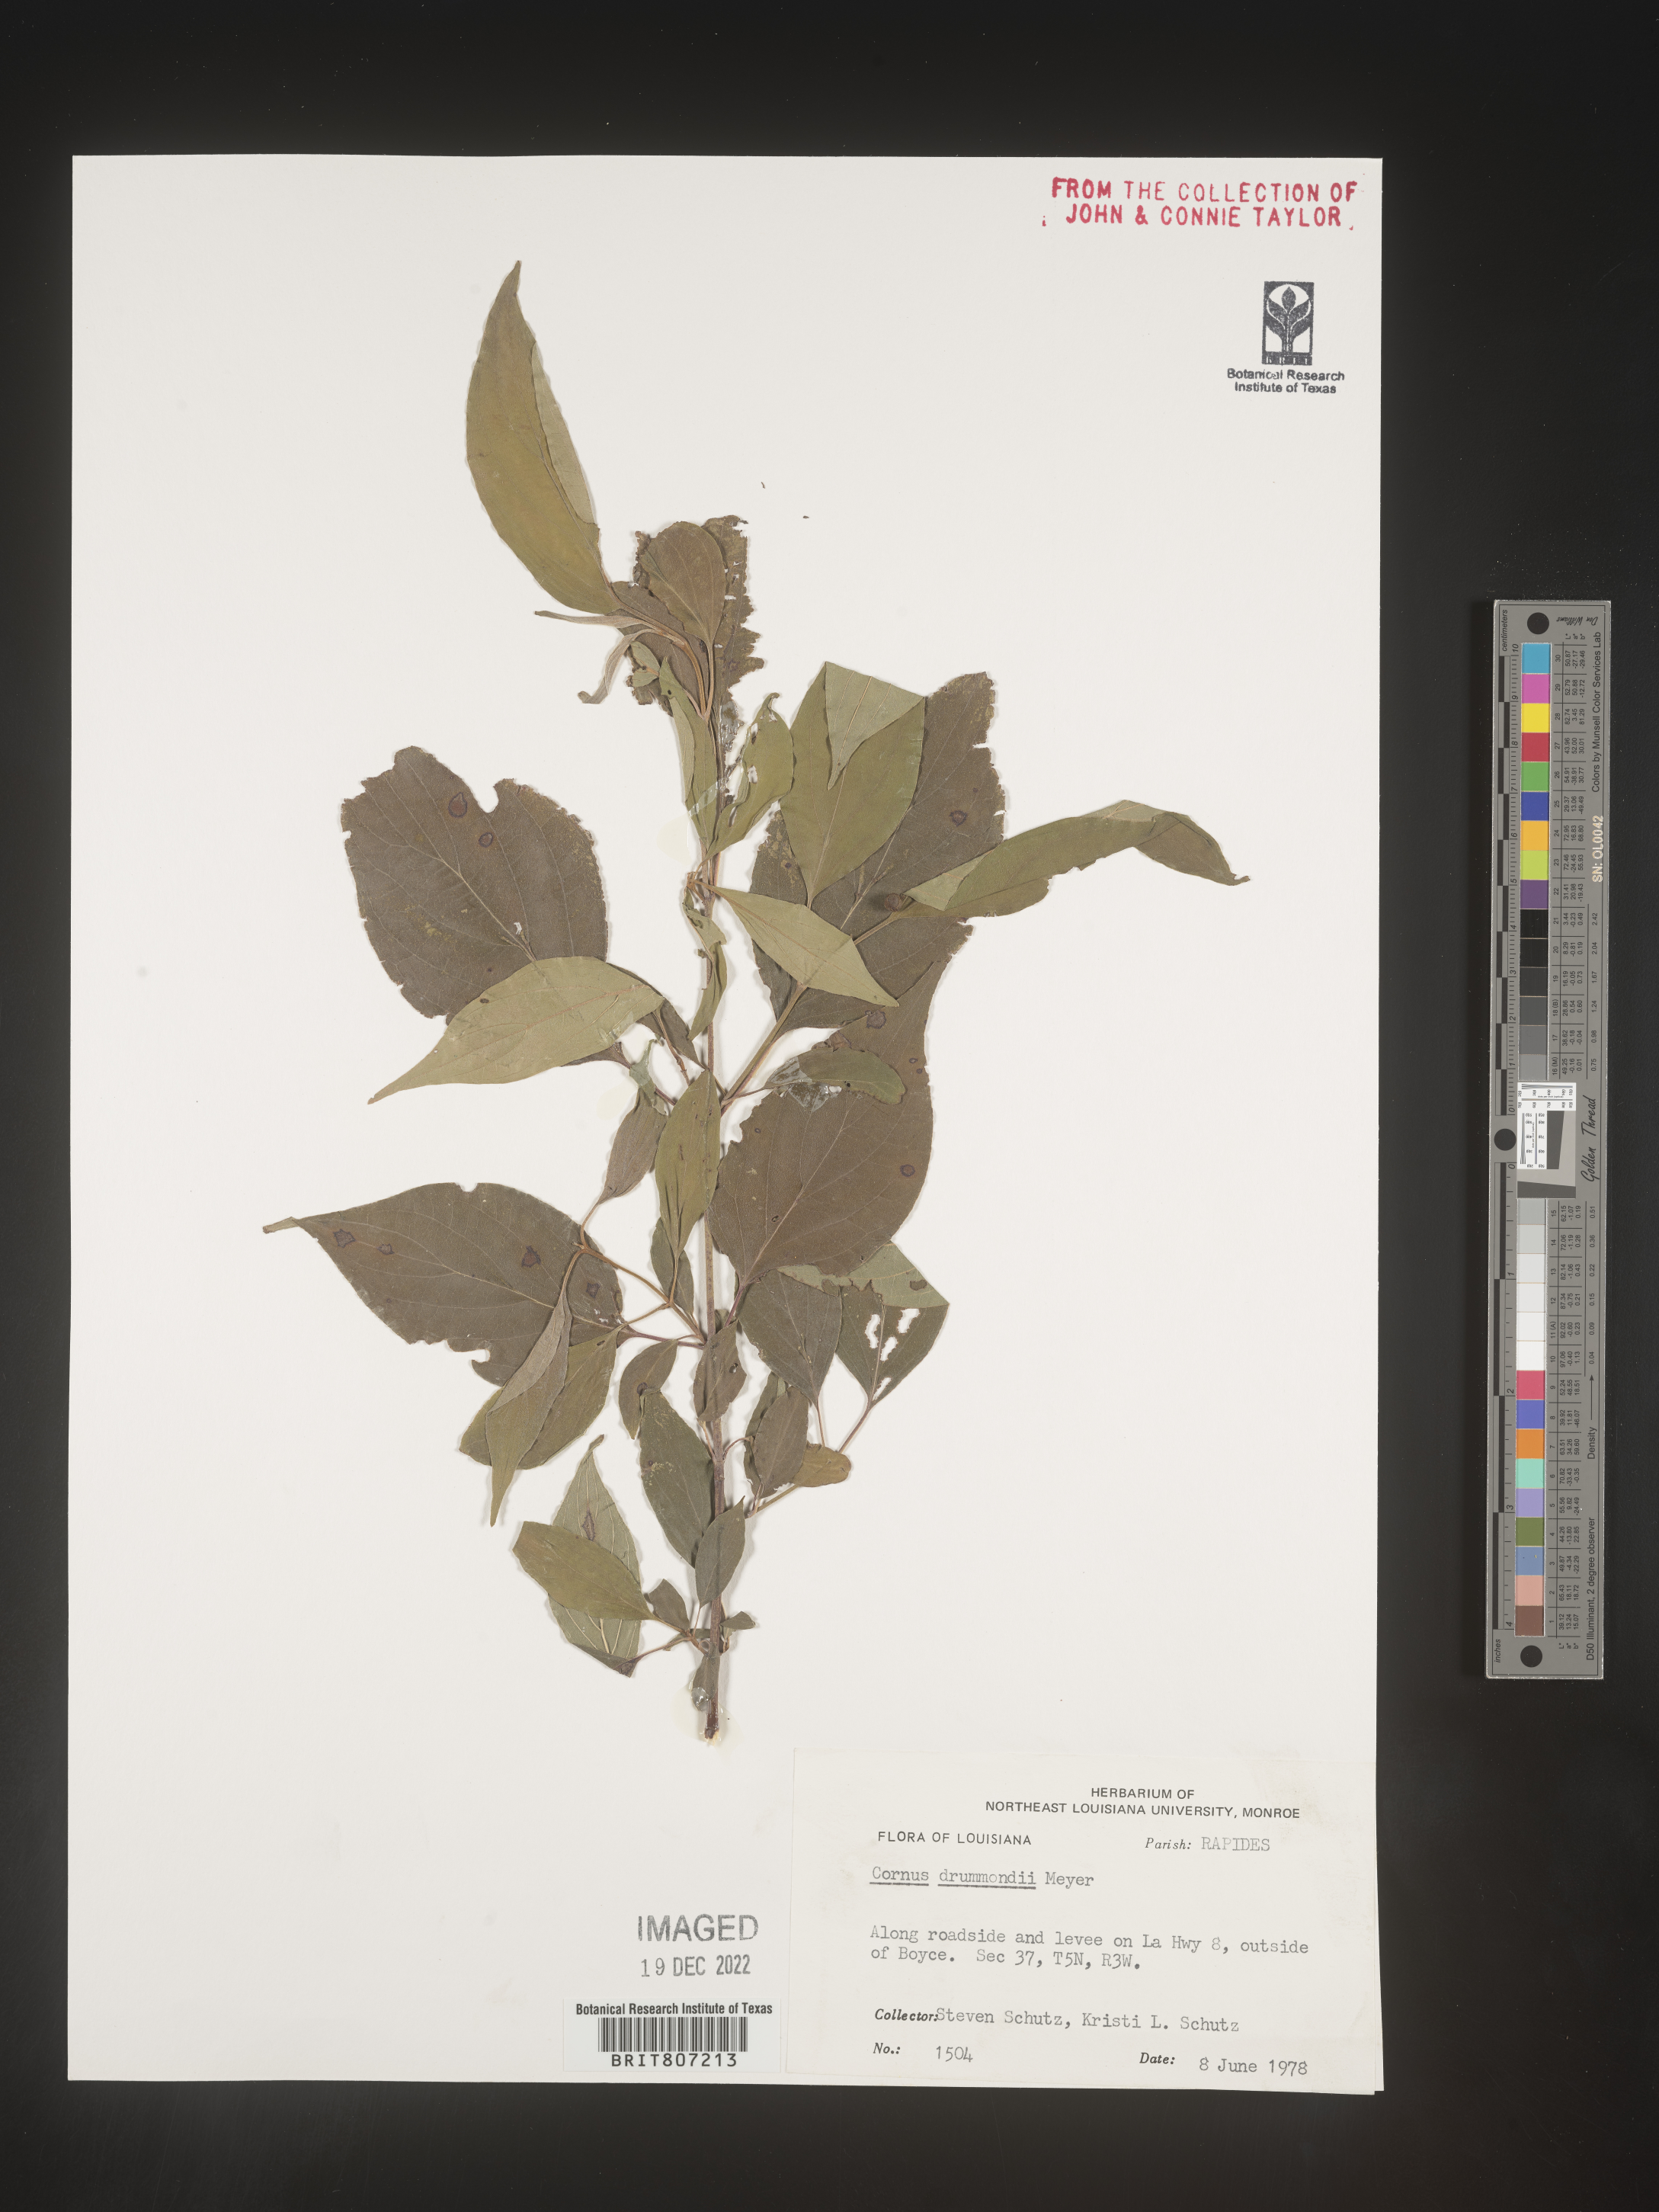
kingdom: Plantae
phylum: Tracheophyta
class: Magnoliopsida
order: Cornales
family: Cornaceae
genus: Cornus
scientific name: Cornus drummondii
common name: Rough-leaf dogwood
